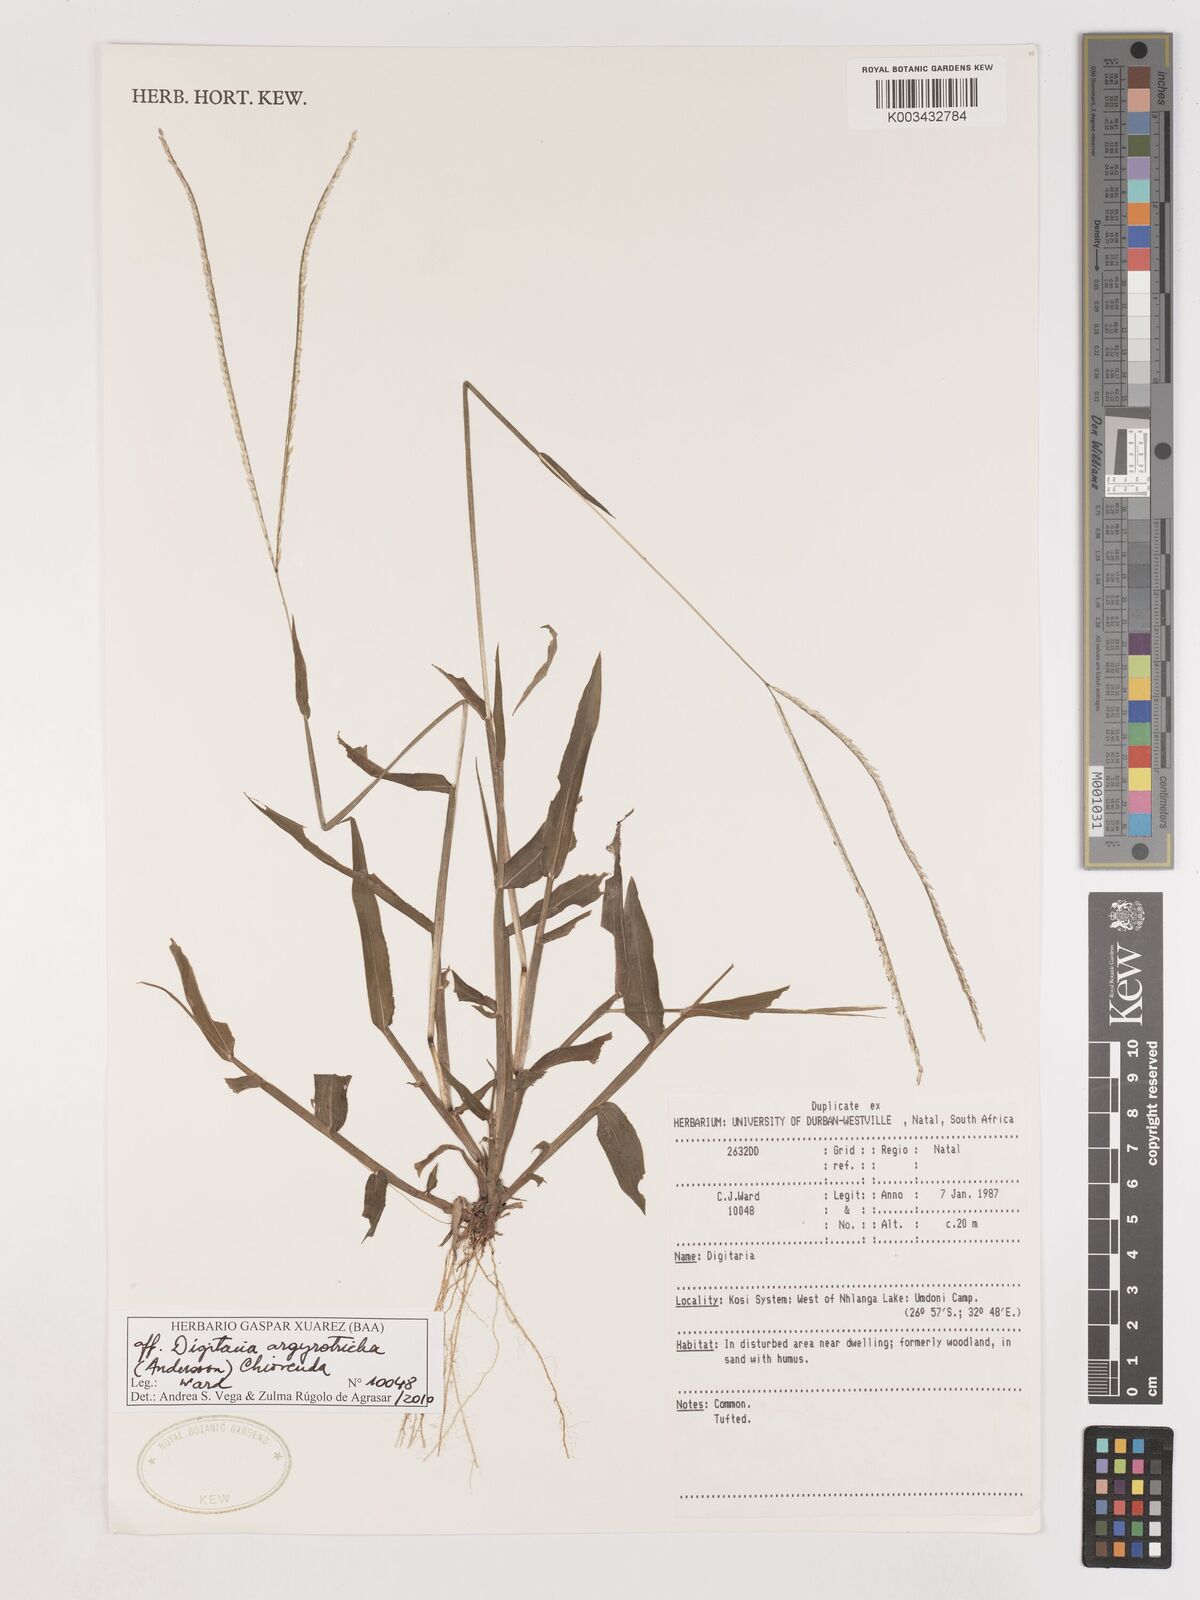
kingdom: Plantae
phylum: Tracheophyta
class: Liliopsida
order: Poales
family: Poaceae
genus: Digitaria
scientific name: Digitaria argyrotricha
